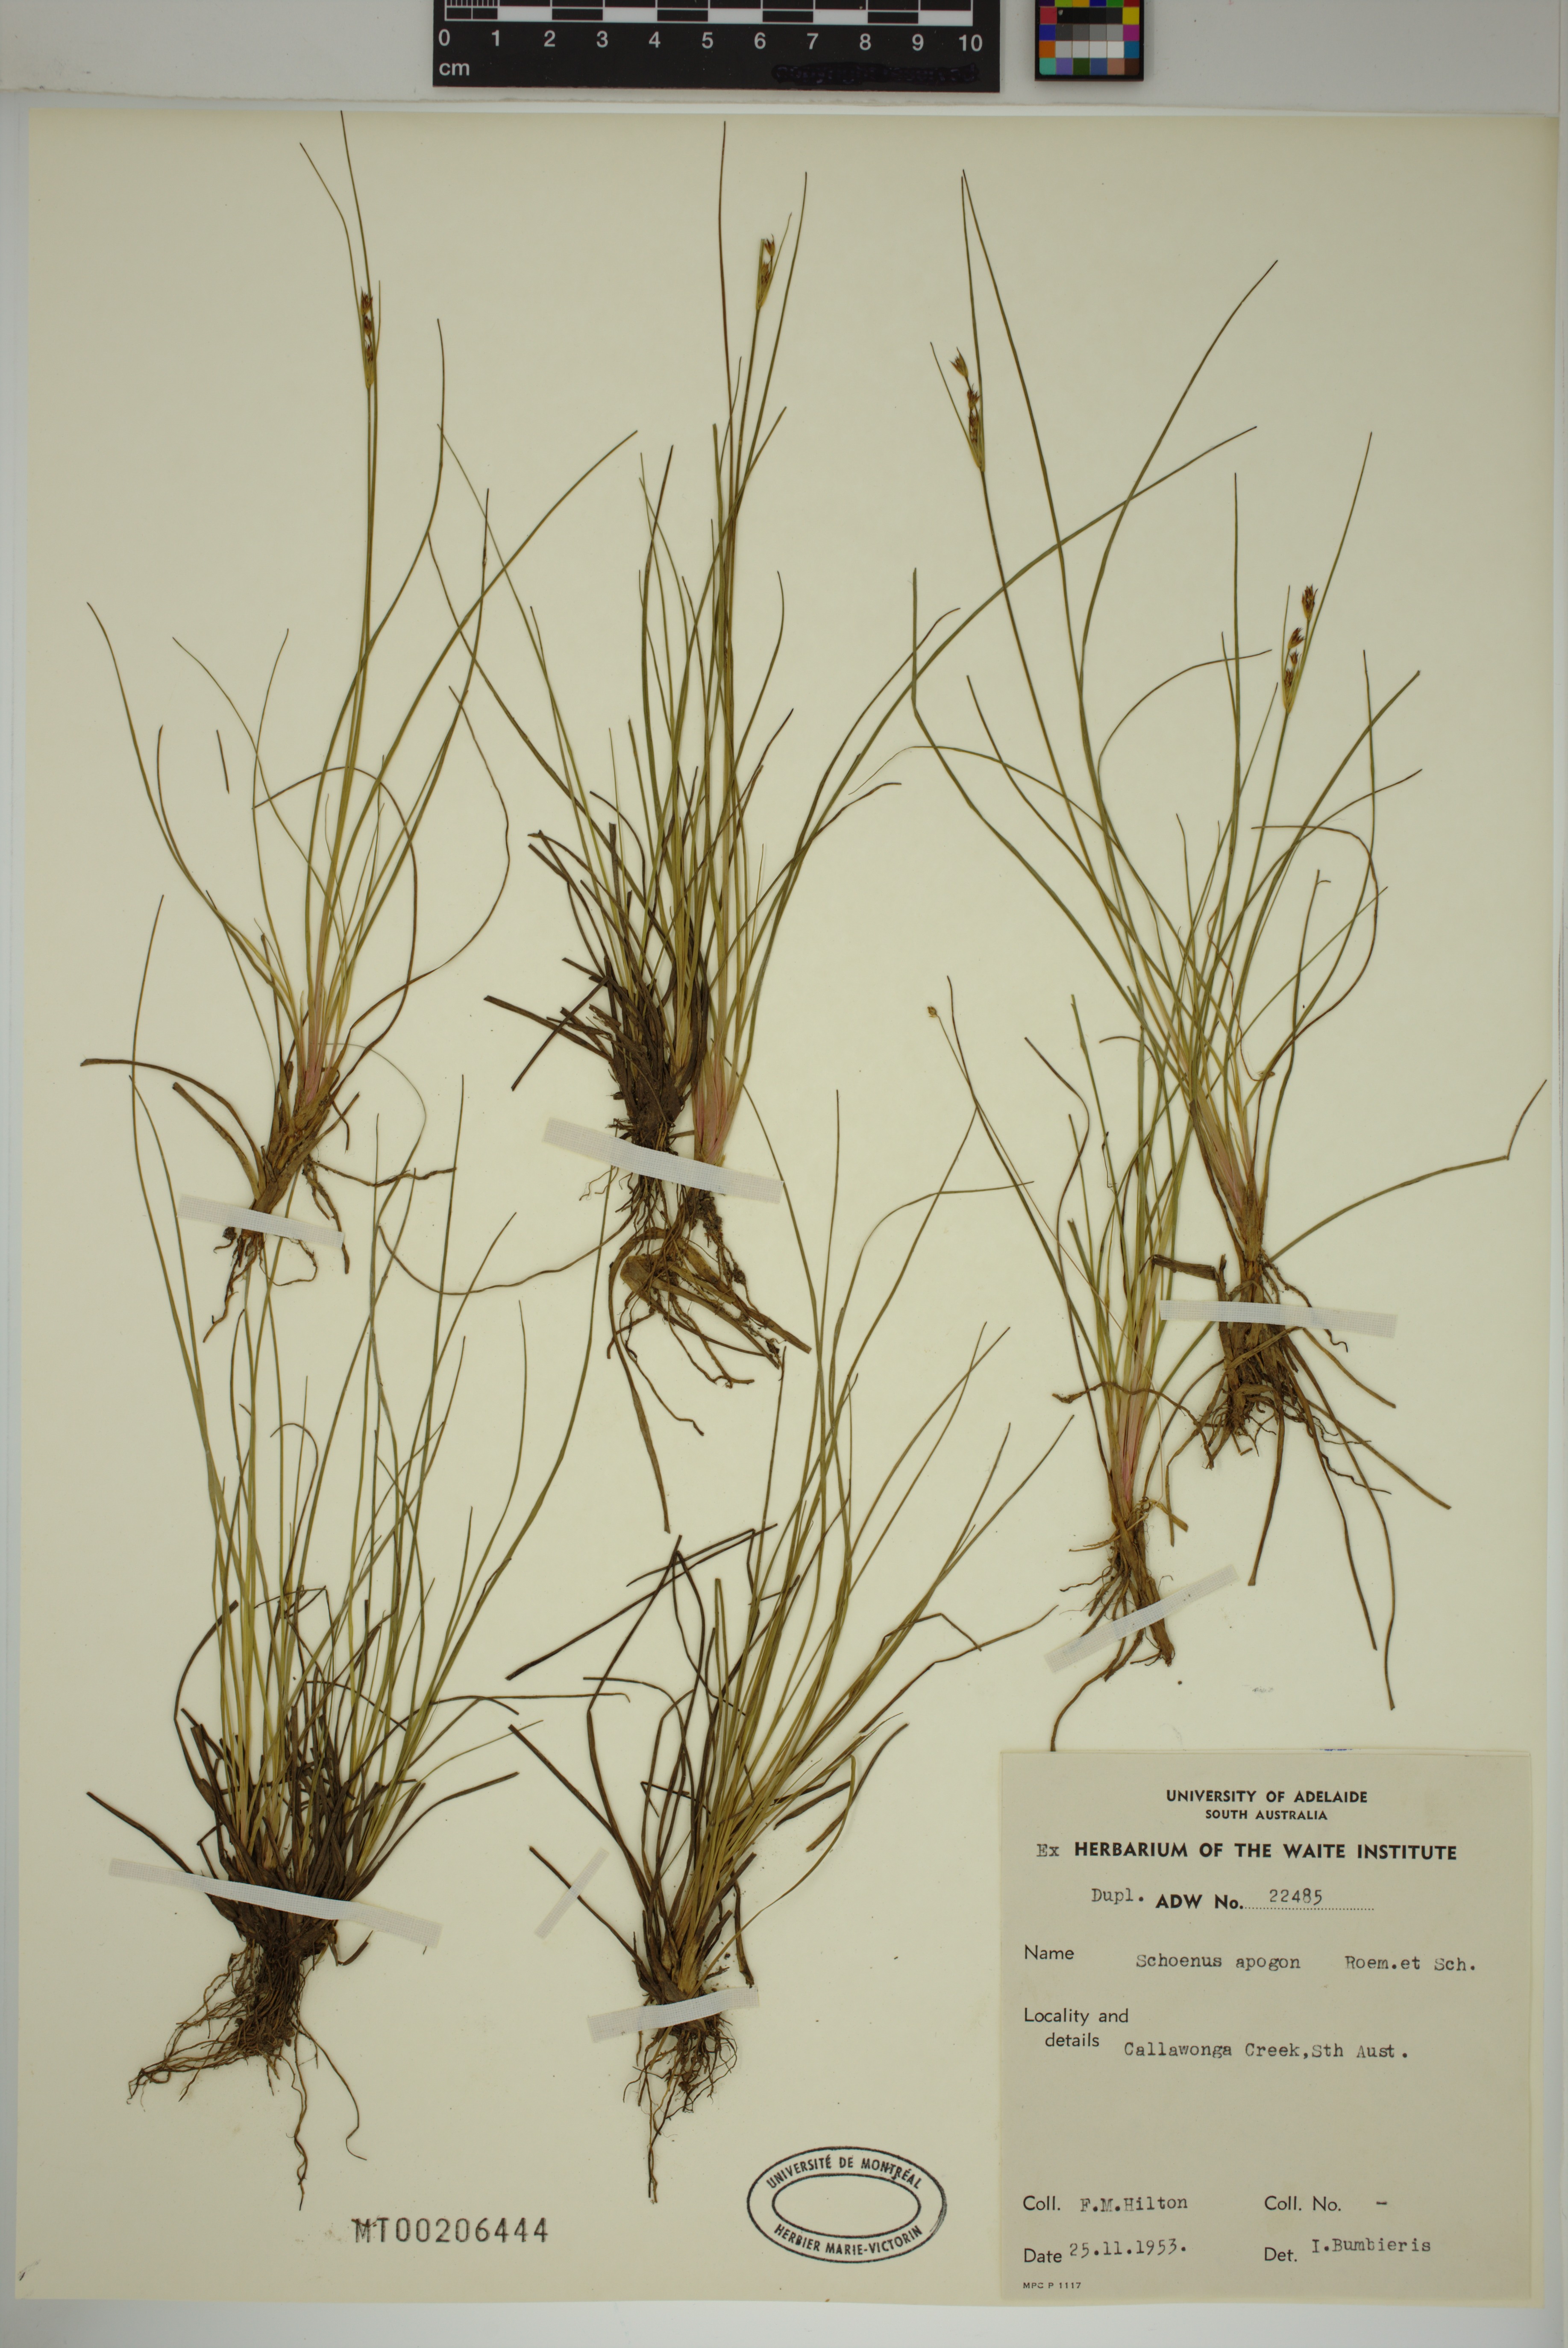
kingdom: Plantae
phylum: Tracheophyta
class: Liliopsida
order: Poales
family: Cyperaceae
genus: Schoenus
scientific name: Schoenus apogon
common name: Smooth bogrush
